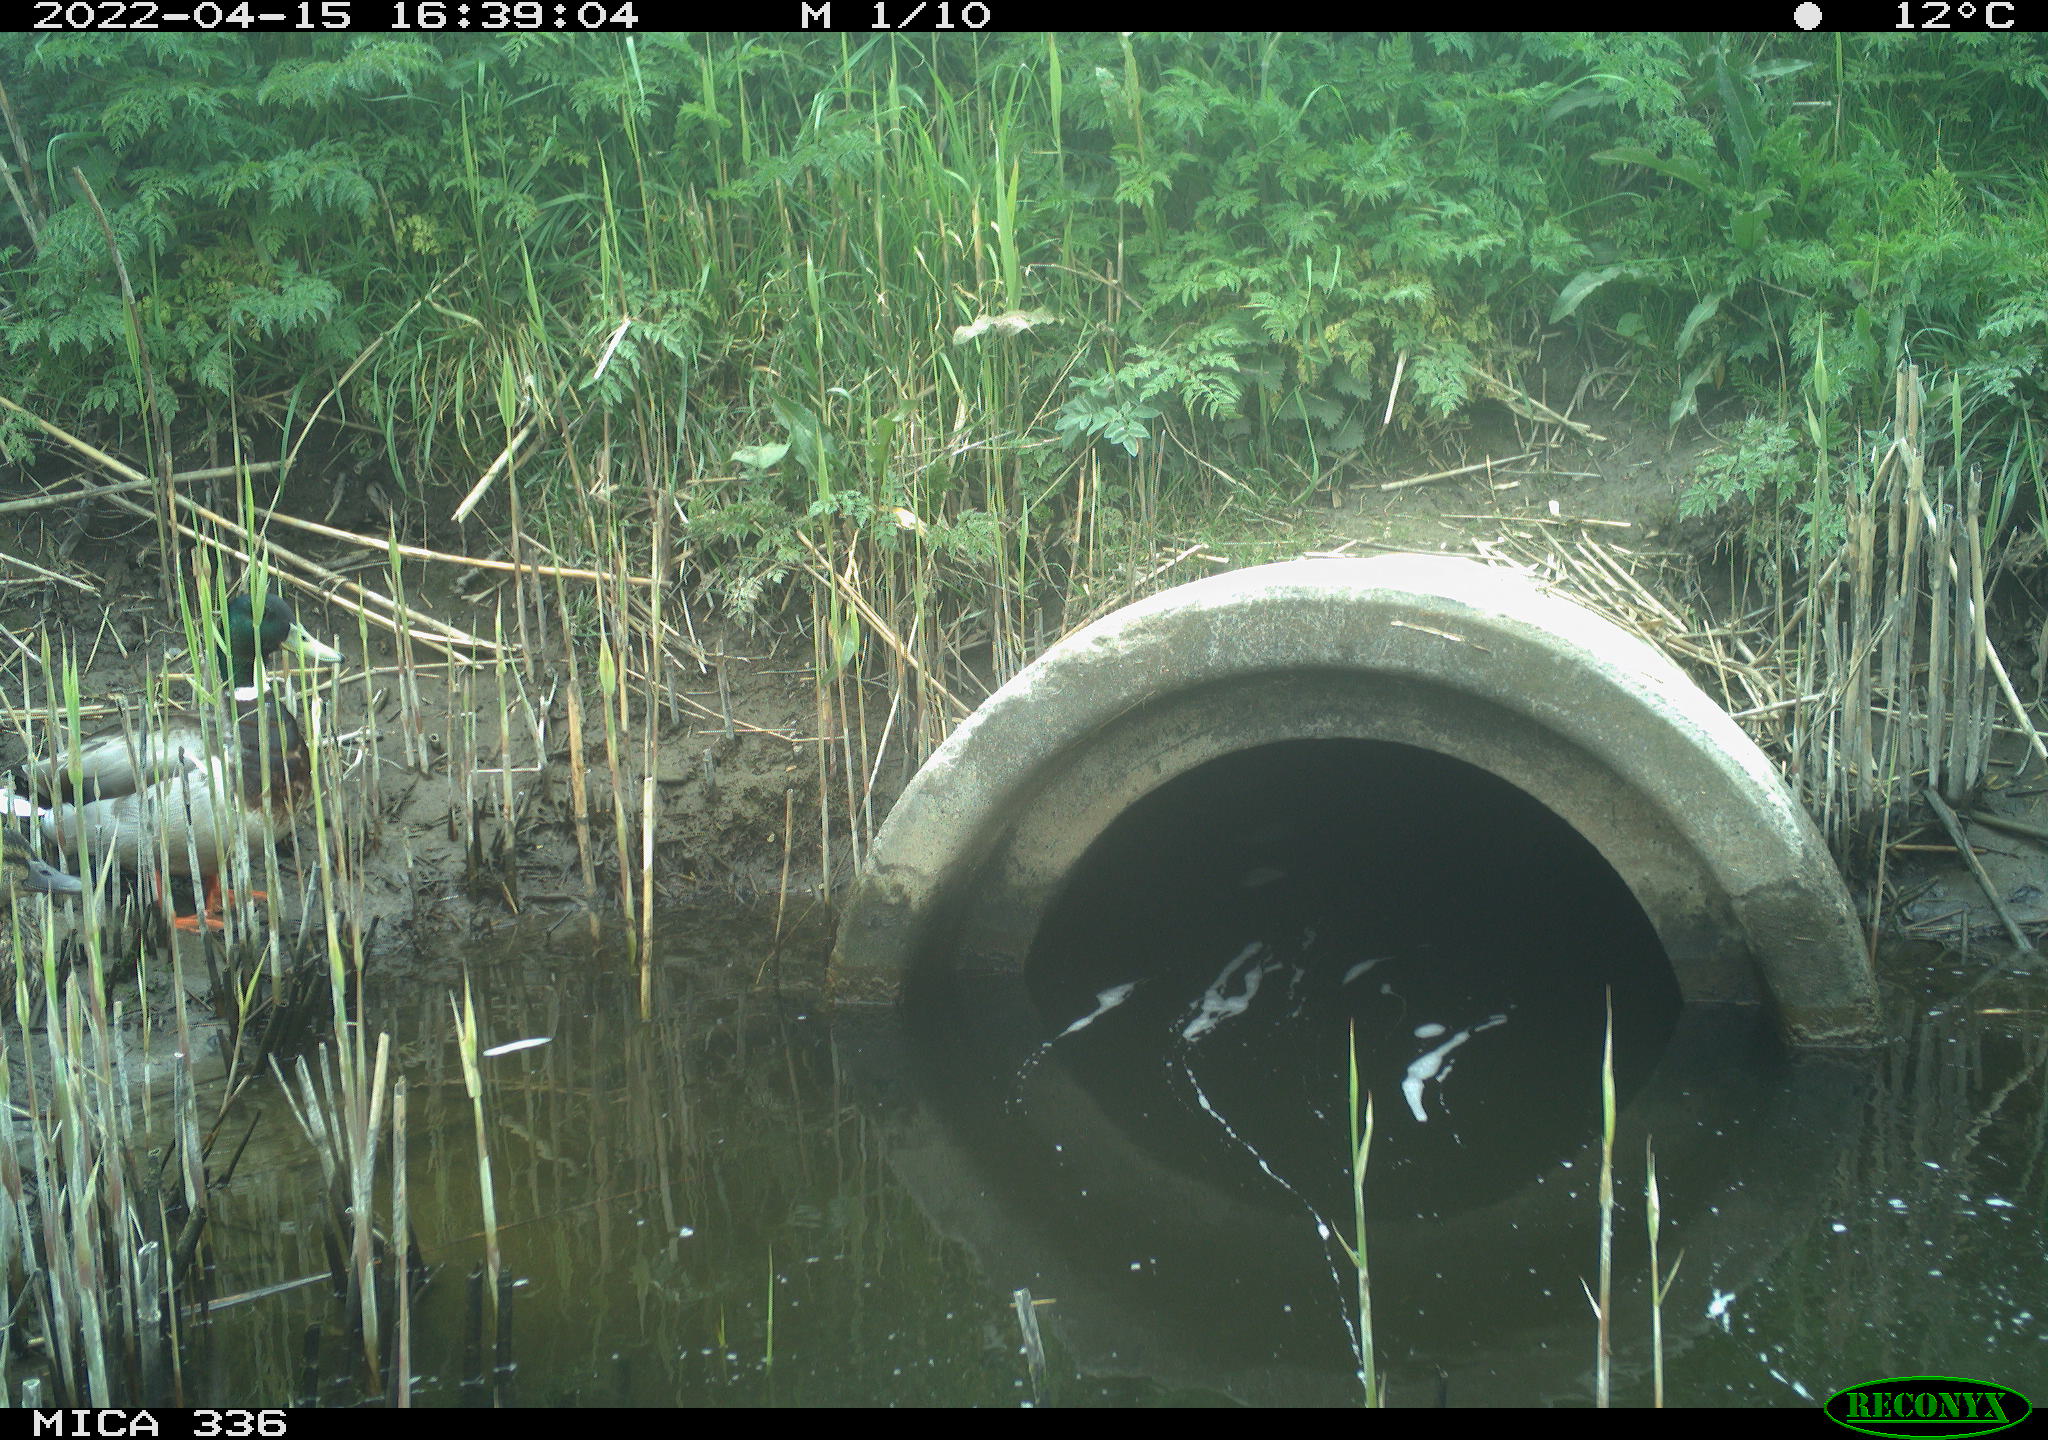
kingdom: Animalia
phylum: Chordata
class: Aves
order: Anseriformes
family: Anatidae
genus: Anas
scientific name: Anas platyrhynchos
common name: Mallard
